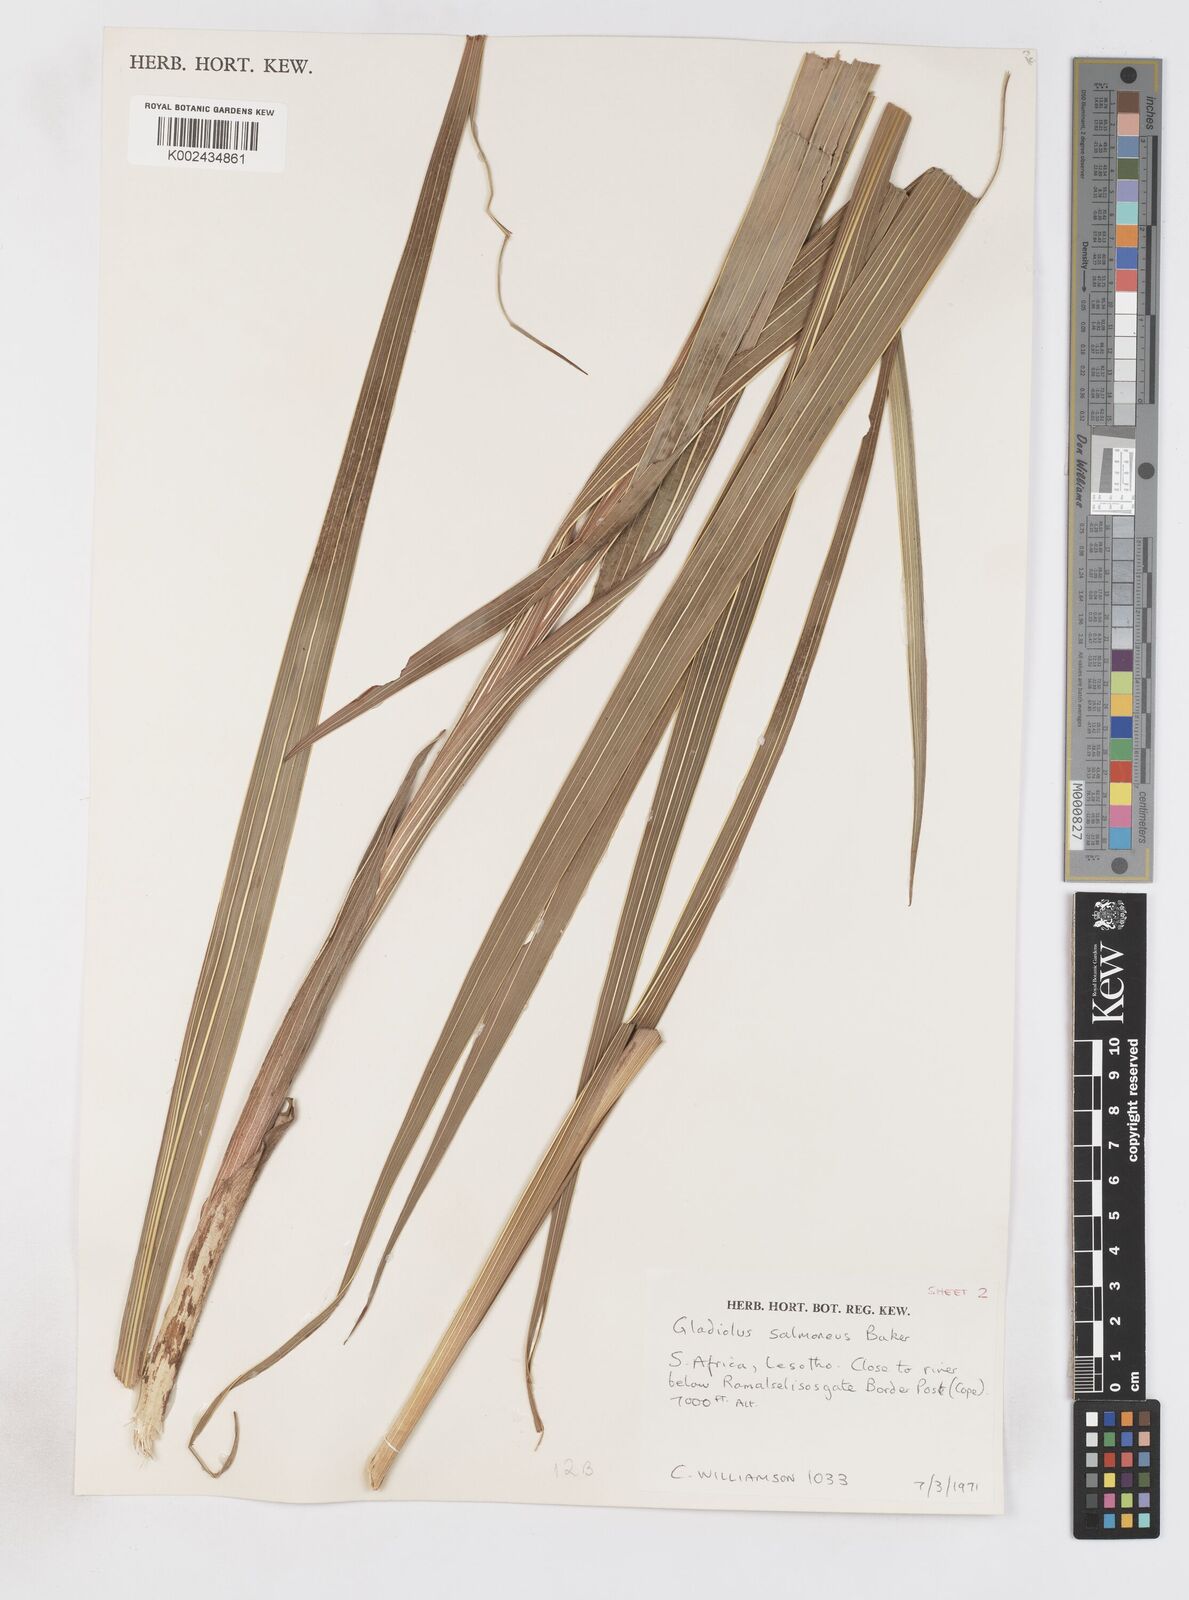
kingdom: Plantae
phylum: Tracheophyta
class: Liliopsida
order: Asparagales
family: Iridaceae
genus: Gladiolus
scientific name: Gladiolus oppositiflorus
